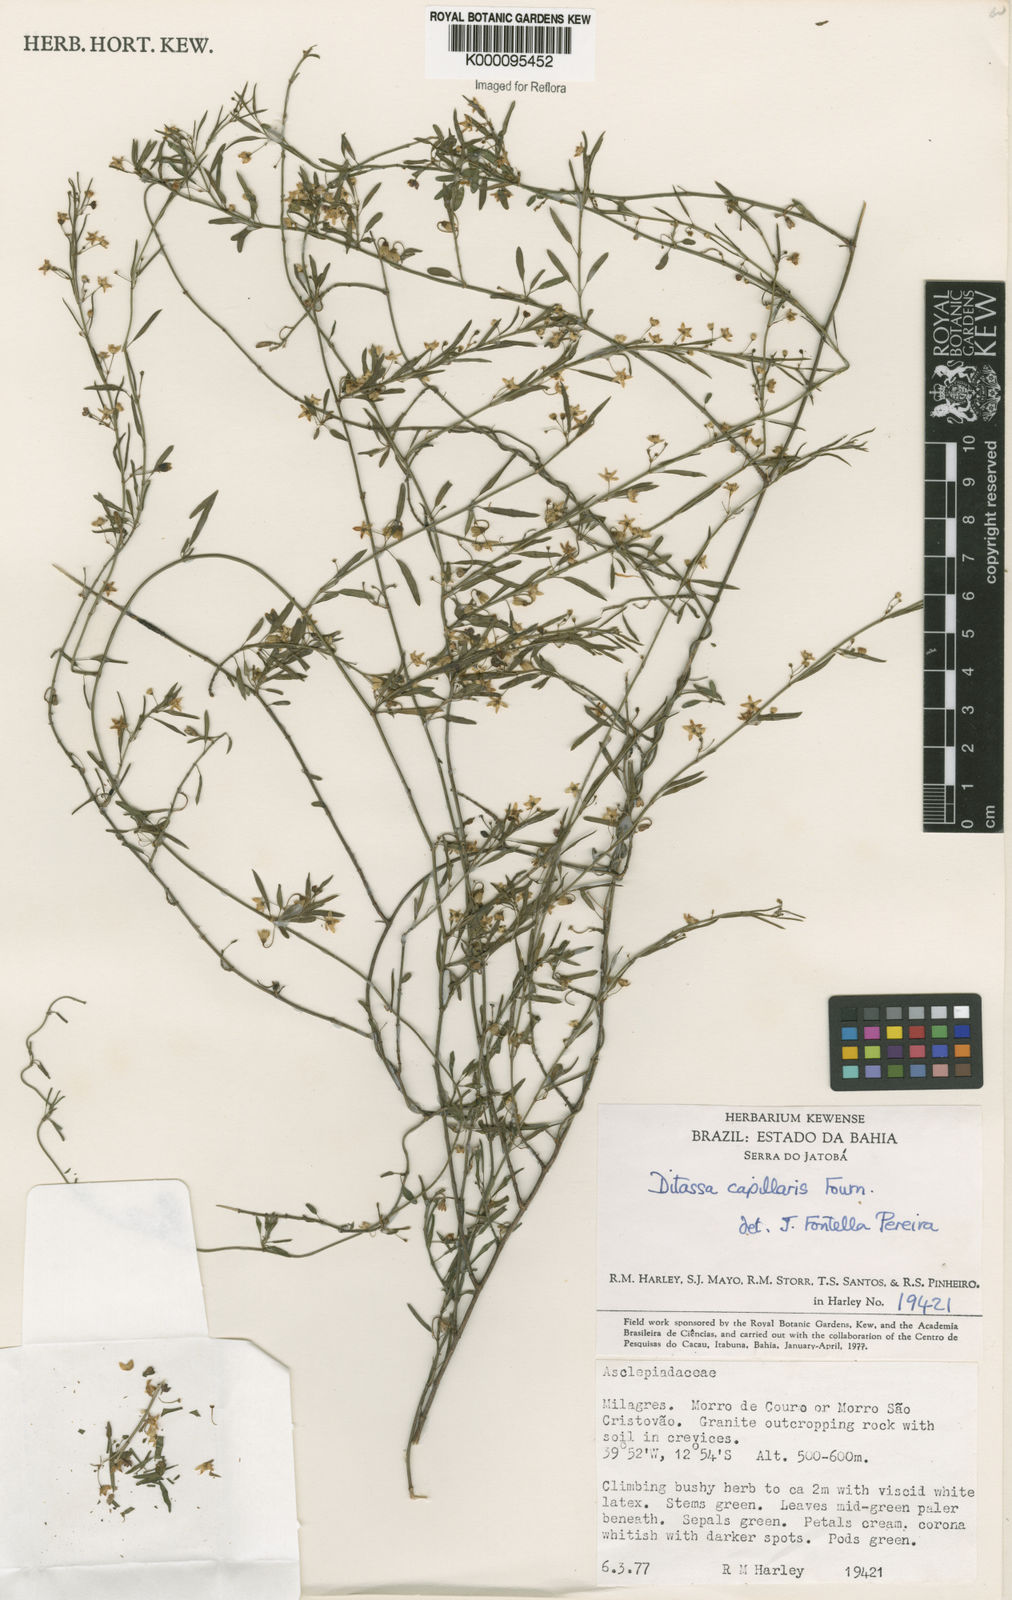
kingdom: Plantae
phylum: Tracheophyta
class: Magnoliopsida
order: Gentianales
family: Apocynaceae
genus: Ditassa
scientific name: Ditassa capillaris
